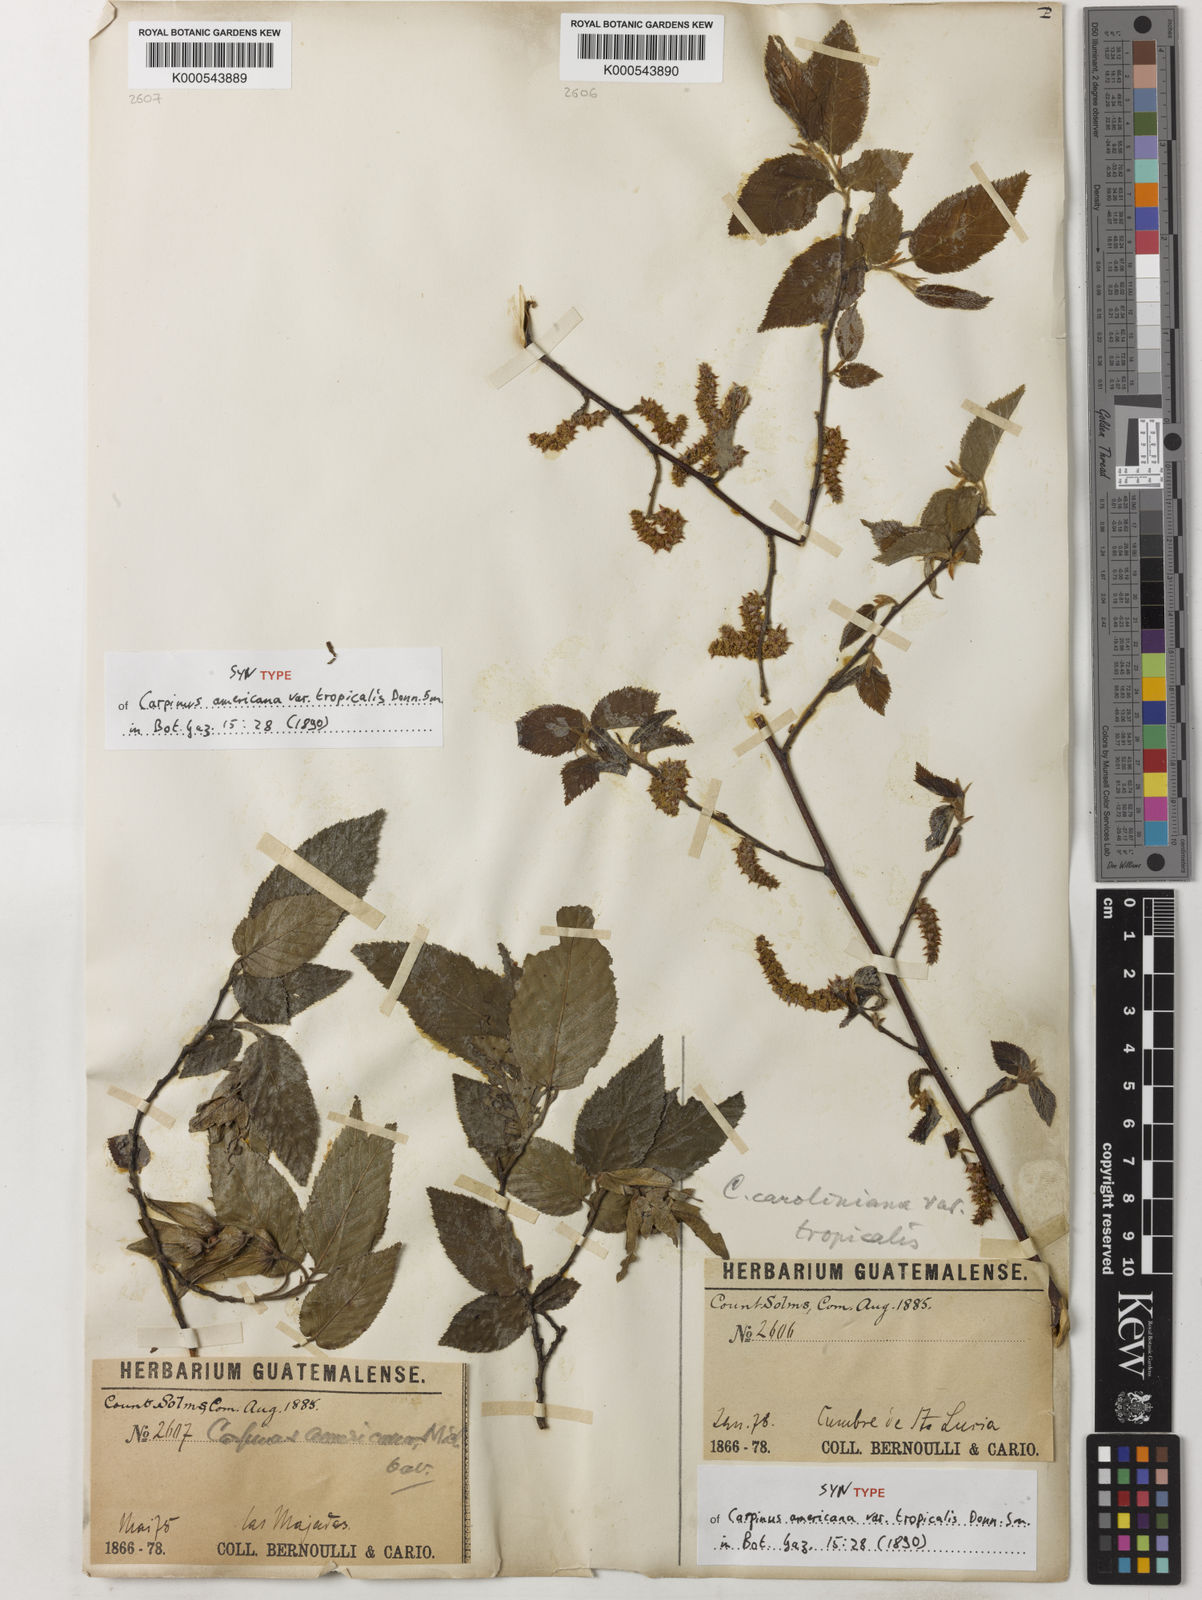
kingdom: Plantae
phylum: Tracheophyta
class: Magnoliopsida
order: Fagales
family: Betulaceae
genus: Carpinus
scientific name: Carpinus caroliniana
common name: American hornbeam
